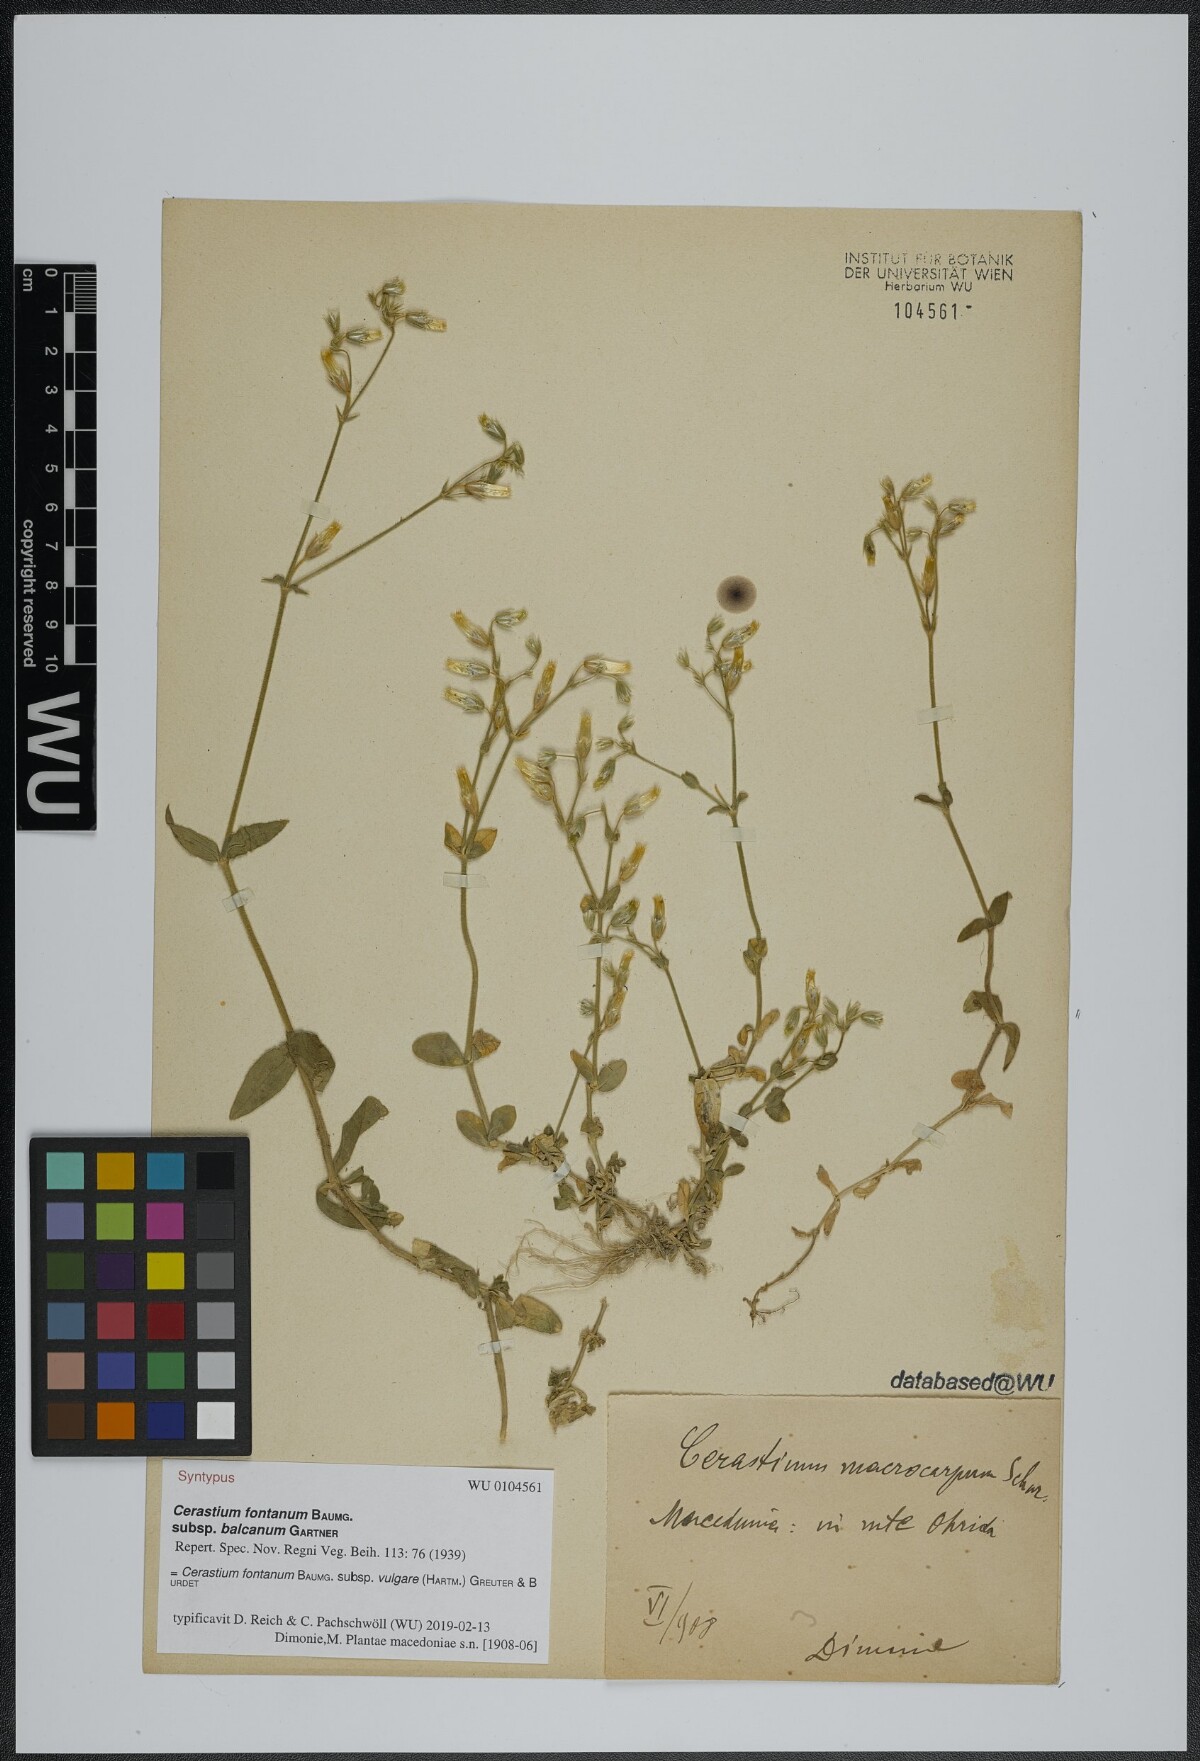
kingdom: Plantae
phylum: Tracheophyta
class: Magnoliopsida
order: Caryophyllales
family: Caryophyllaceae
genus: Cerastium
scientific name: Cerastium holosteoides
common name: Big chickweed
